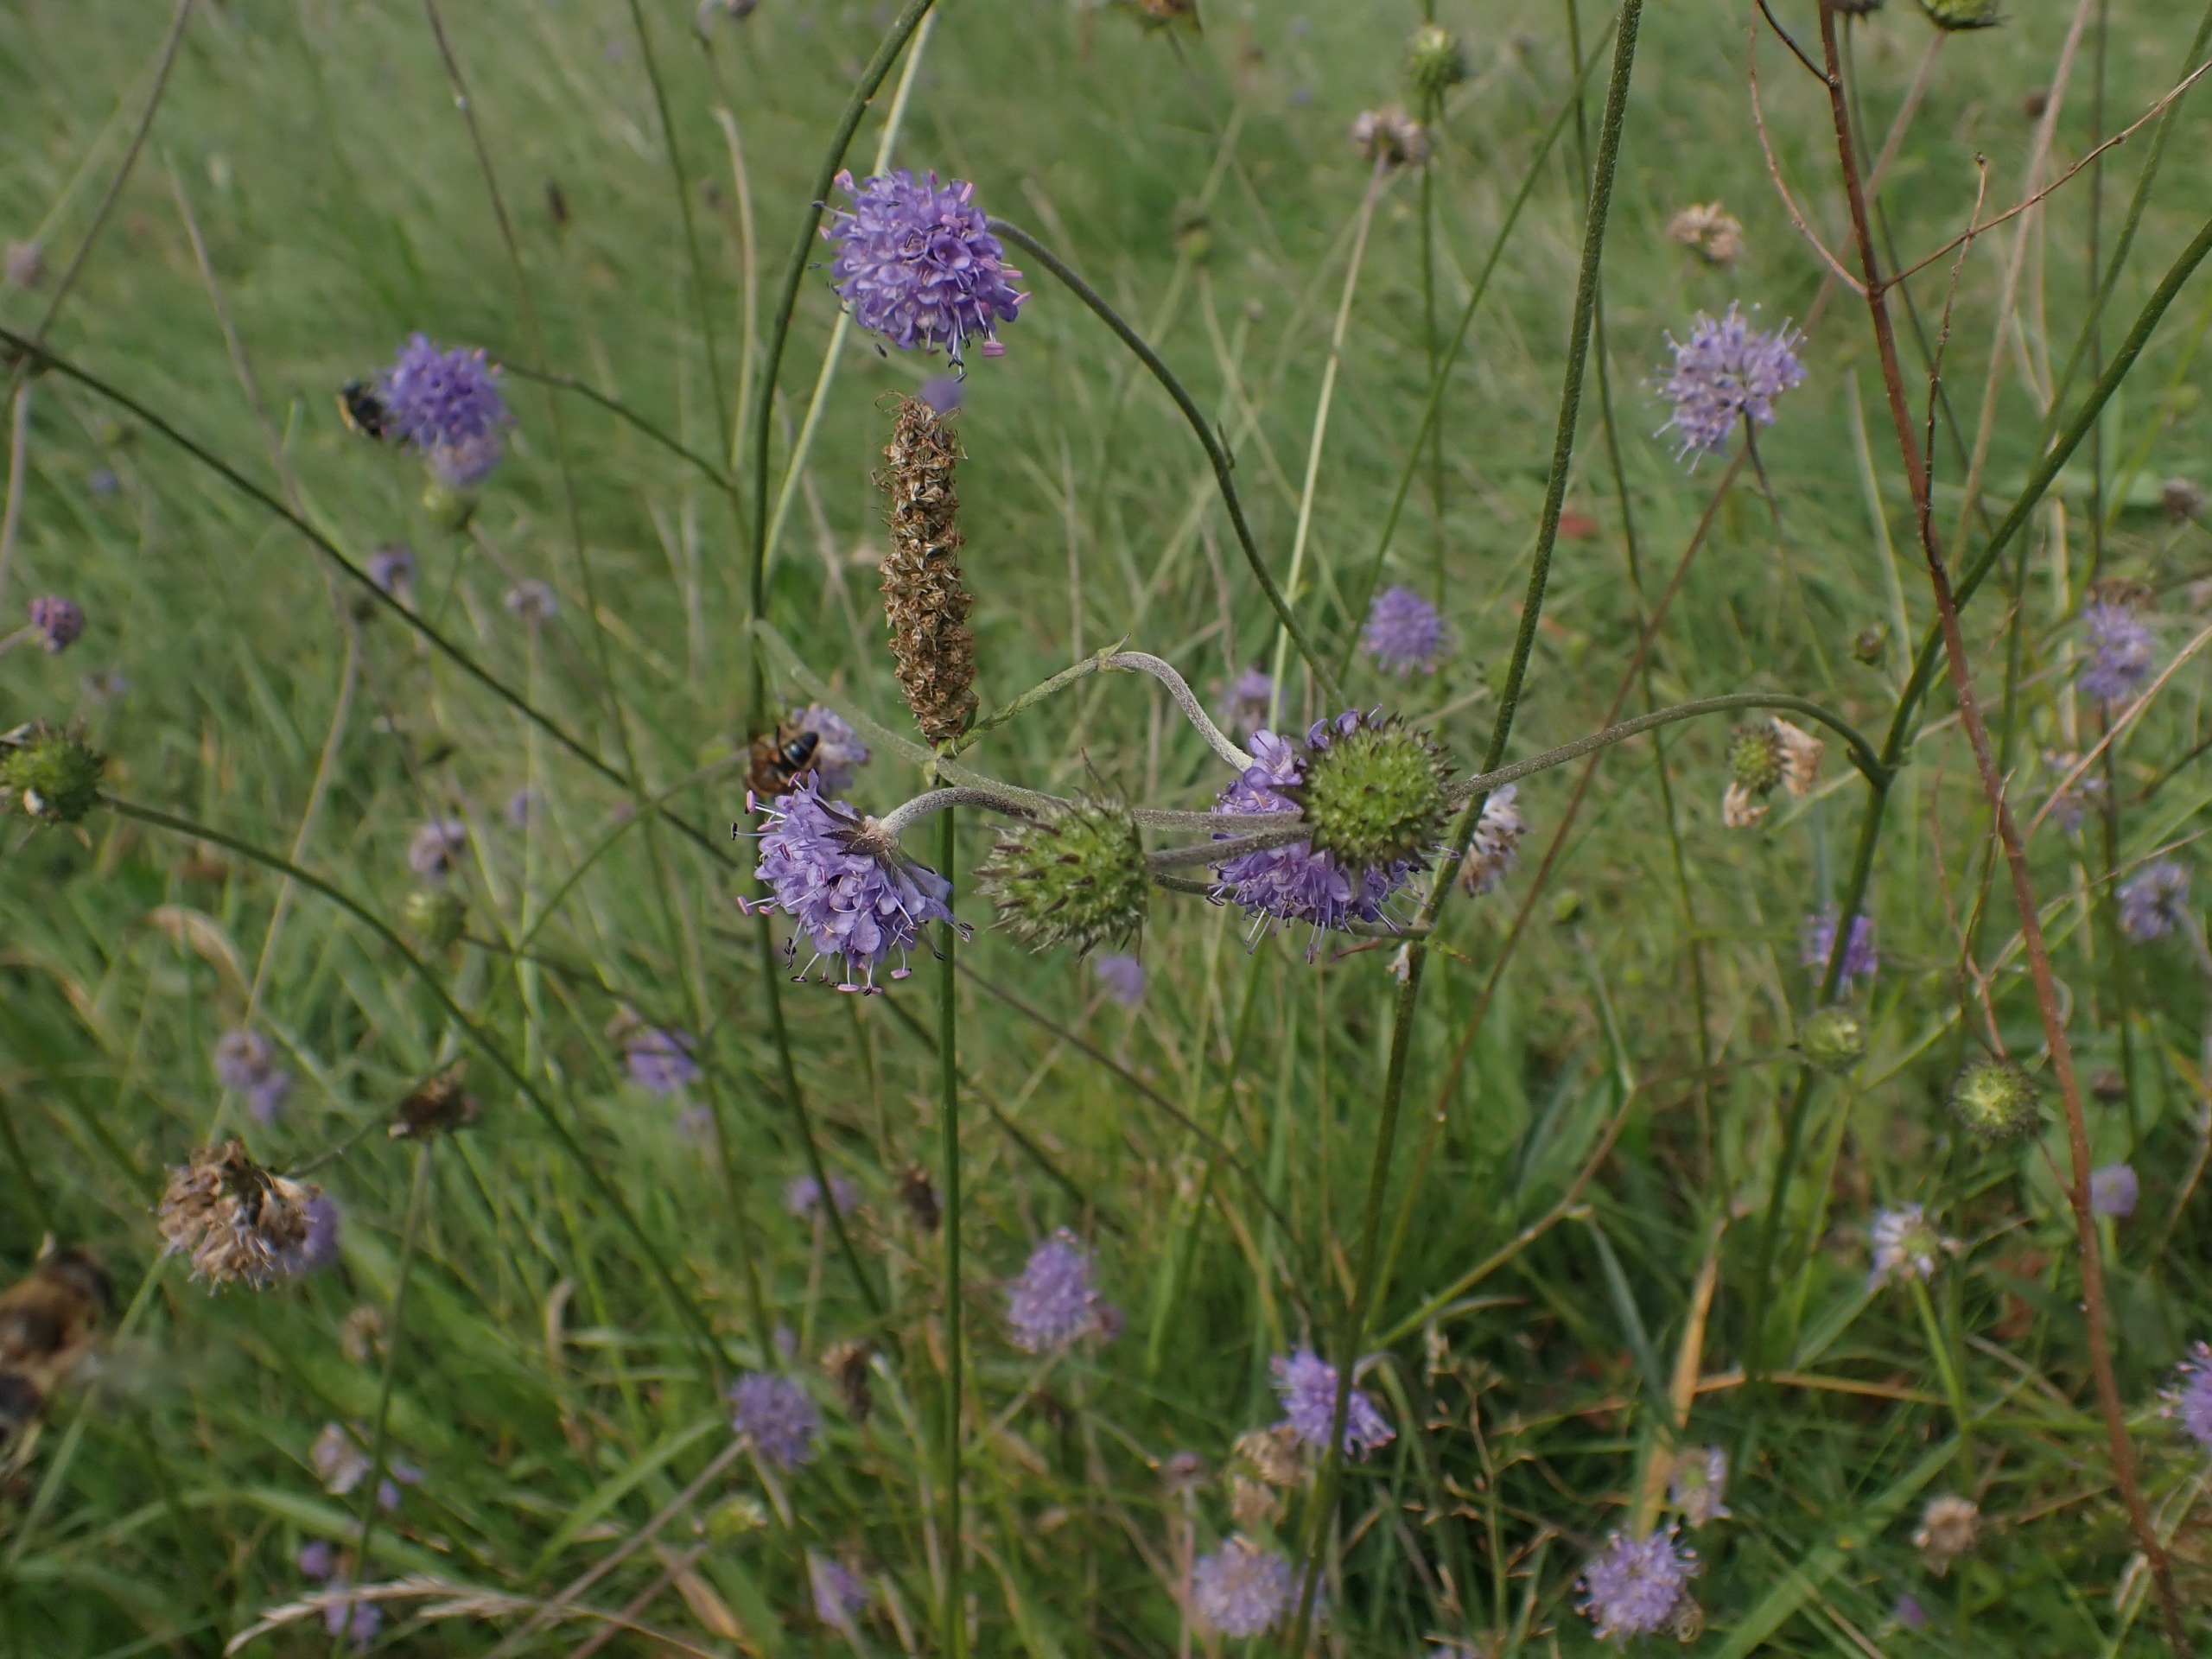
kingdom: Plantae
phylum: Tracheophyta
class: Magnoliopsida
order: Dipsacales
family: Caprifoliaceae
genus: Succisa
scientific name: Succisa pratensis
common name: Djævelsbid
